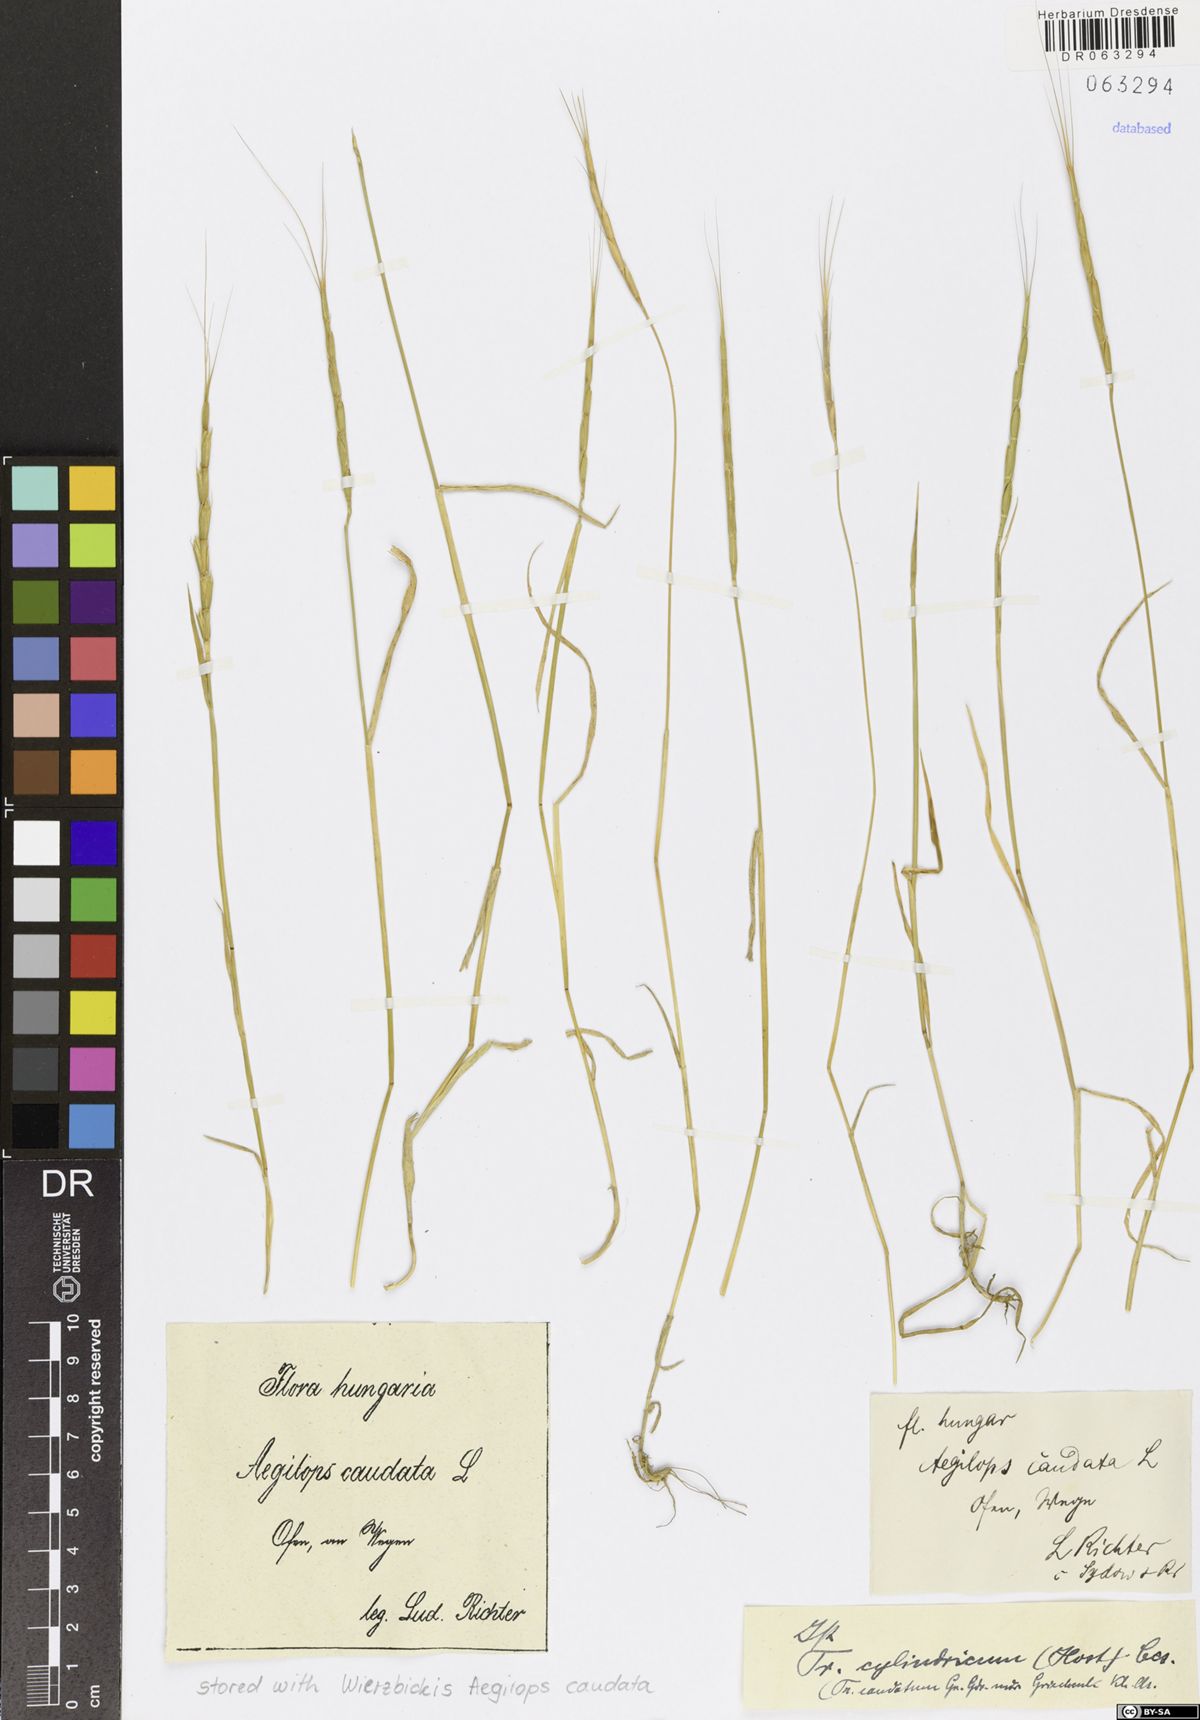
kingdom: Plantae
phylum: Tracheophyta
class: Liliopsida
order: Poales
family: Poaceae
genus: Aegilops
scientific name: Aegilops caudata
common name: Cretan hard-grass
